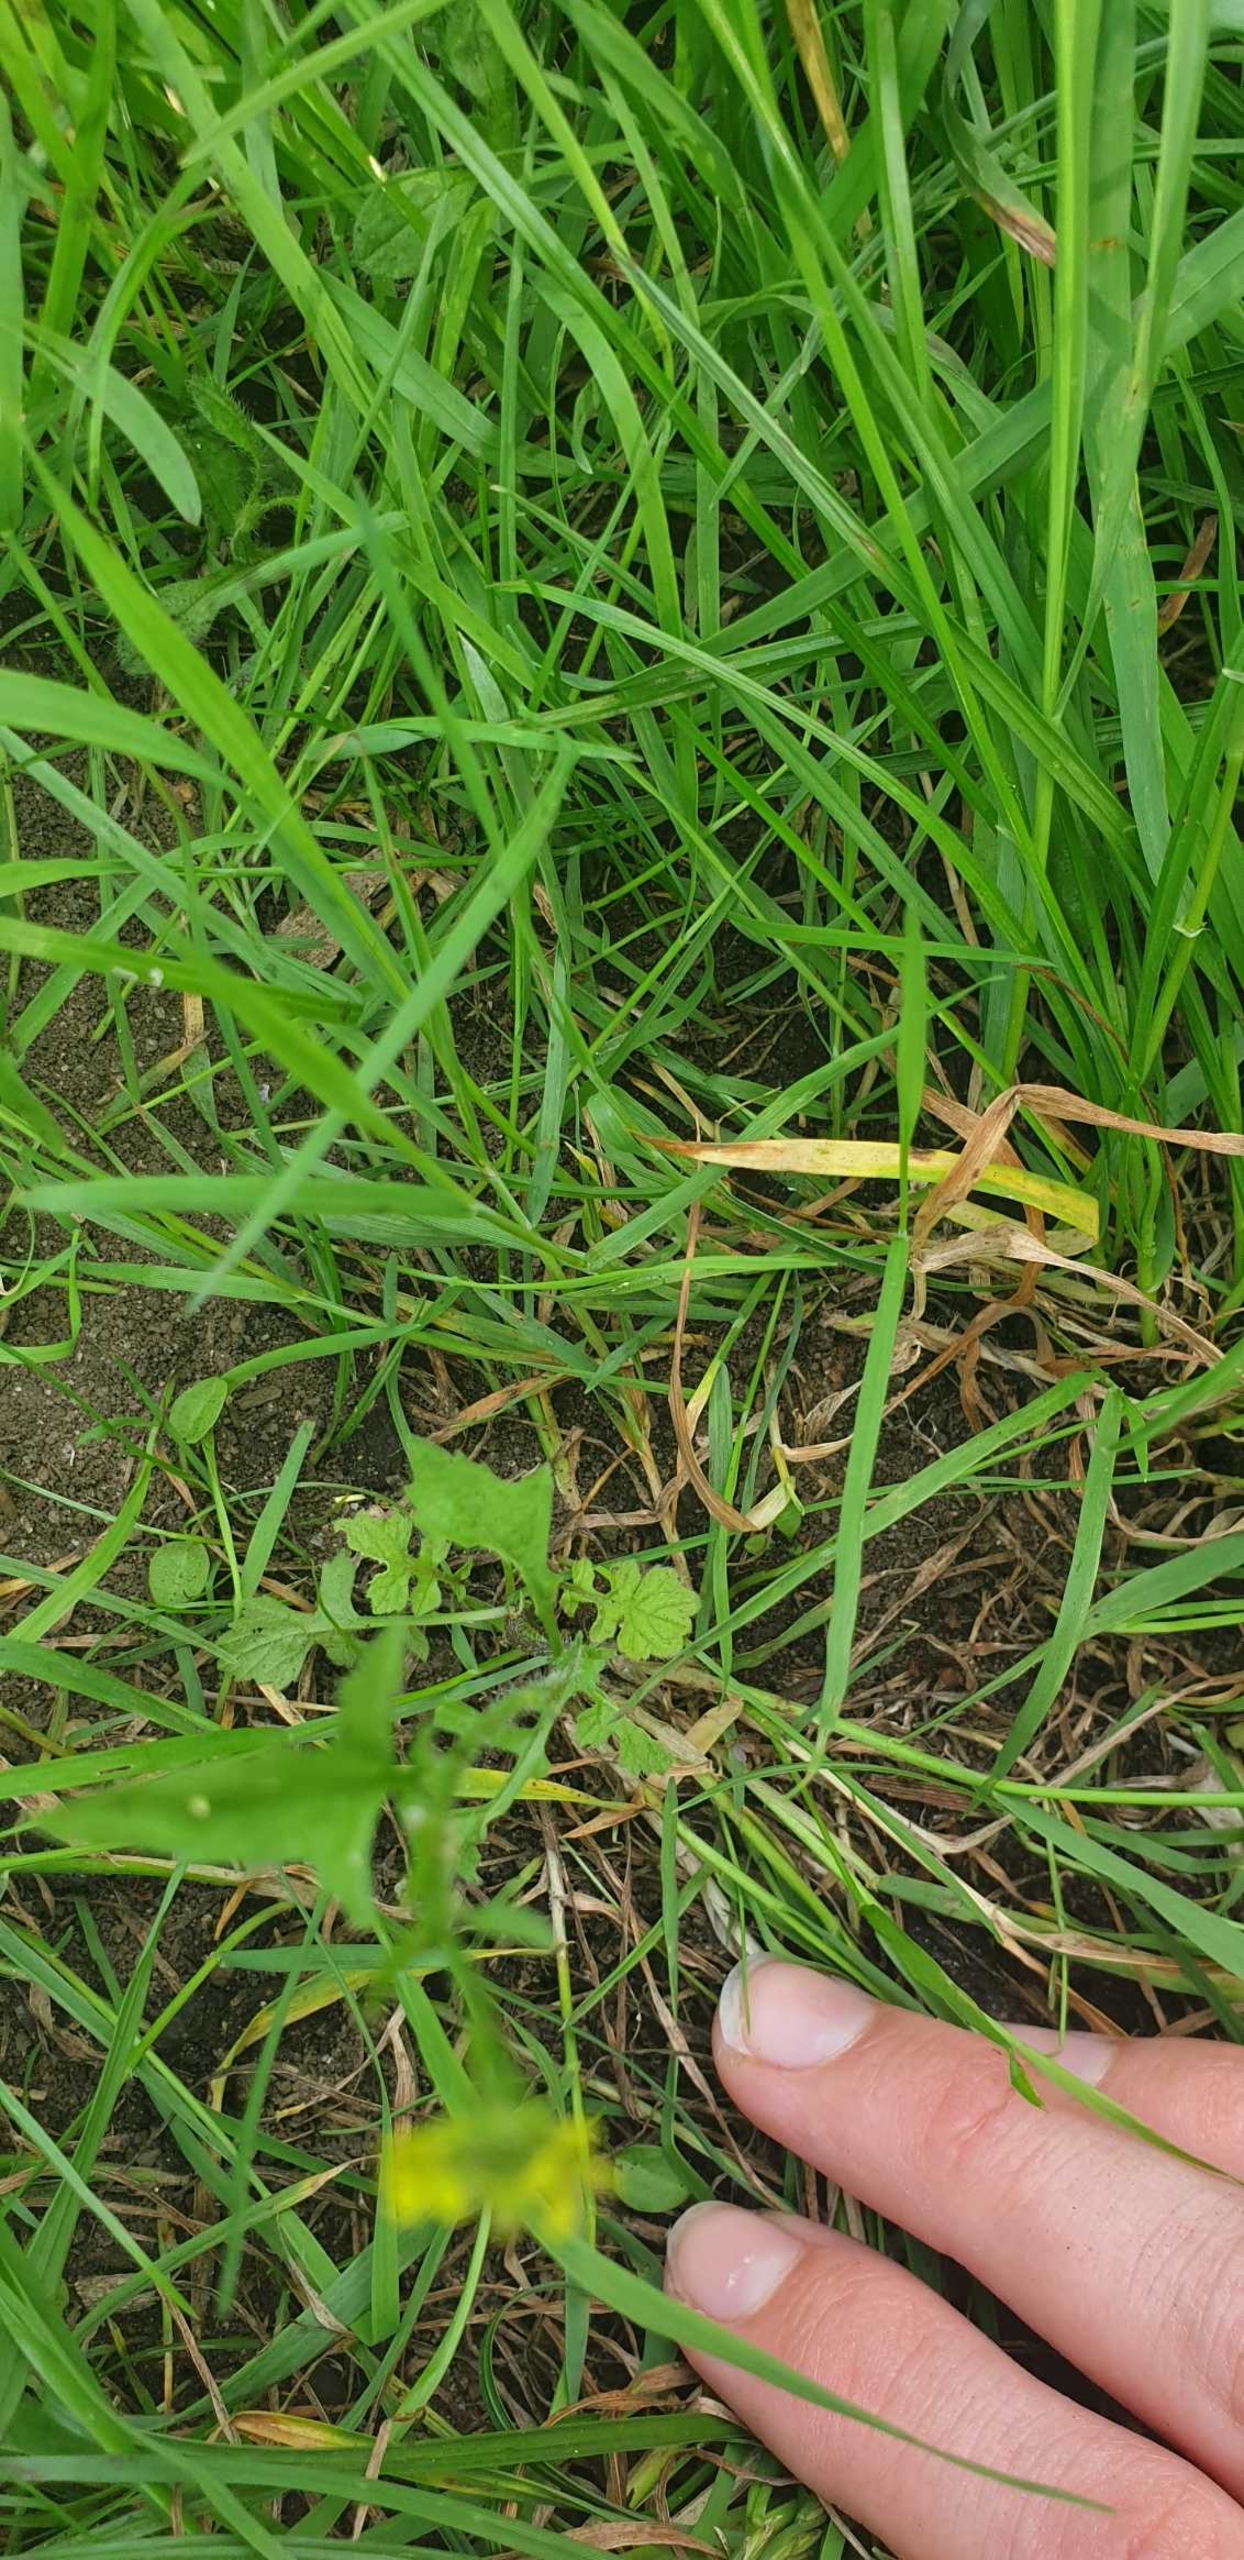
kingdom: Plantae
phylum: Tracheophyta
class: Magnoliopsida
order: Brassicales
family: Brassicaceae
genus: Sisymbrium
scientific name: Sisymbrium officinale
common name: Rank vejsennep
